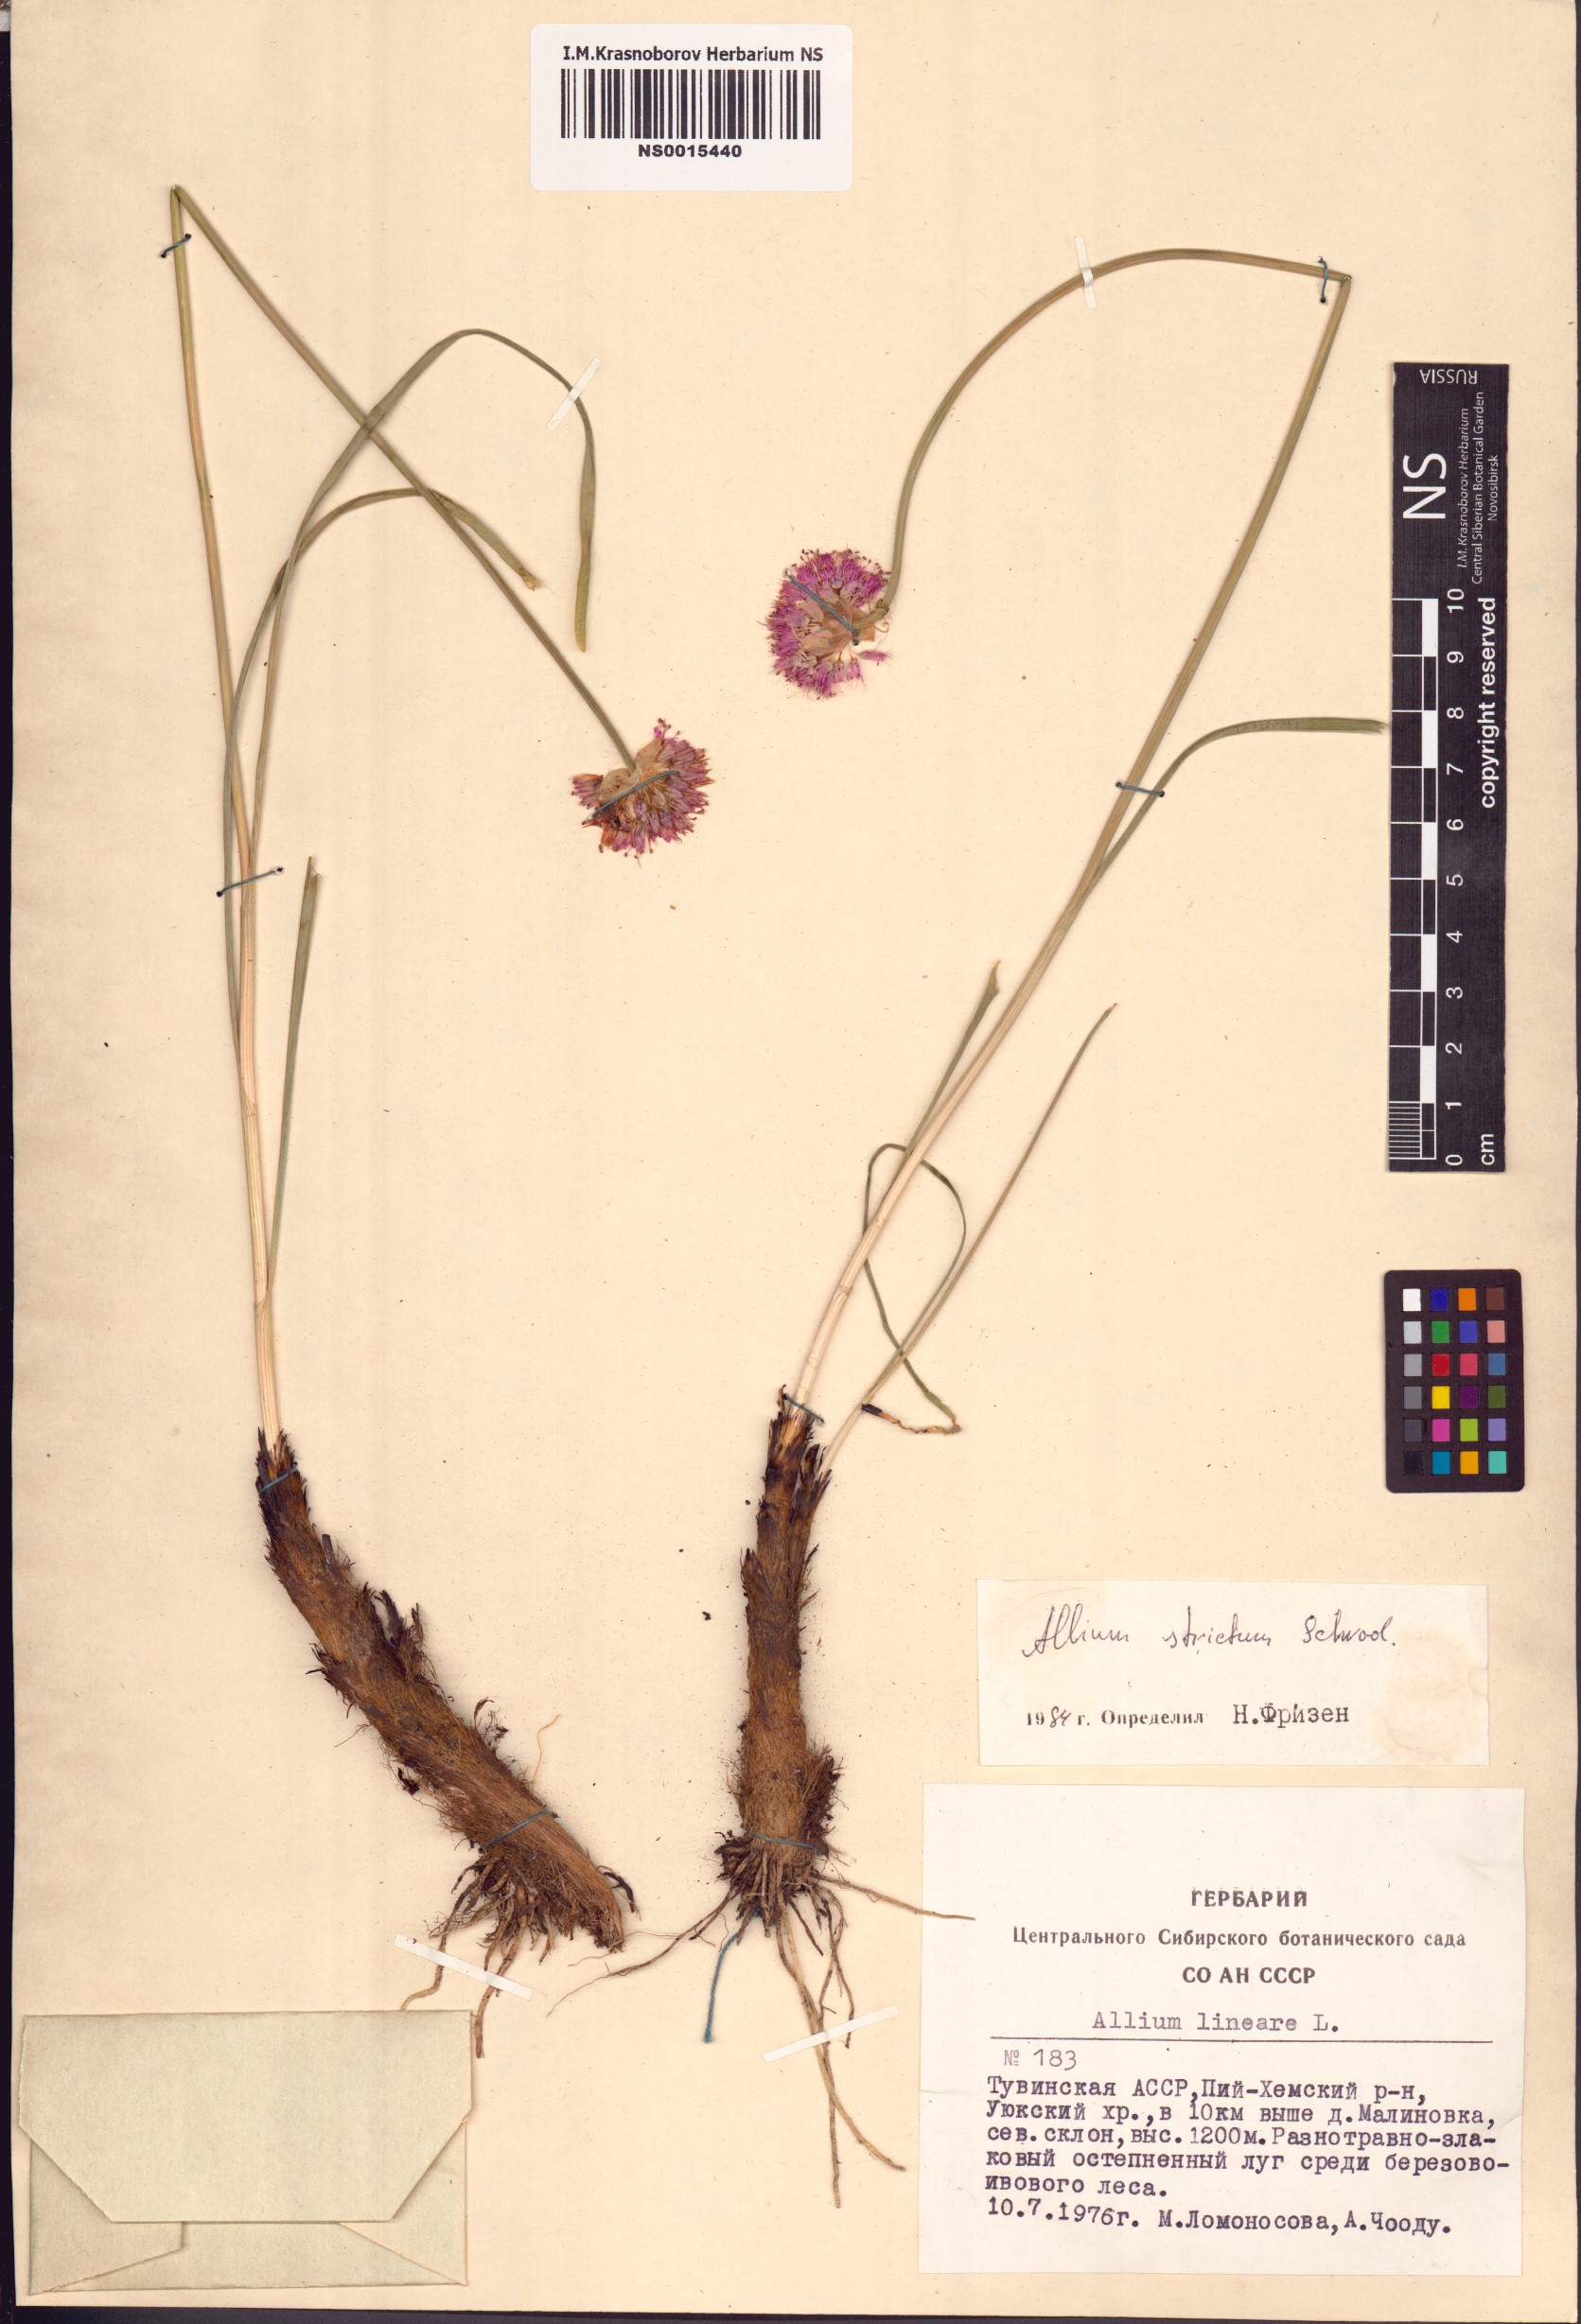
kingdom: Plantae
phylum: Tracheophyta
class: Liliopsida
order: Asparagales
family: Amaryllidaceae
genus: Allium
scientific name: Allium strictum
